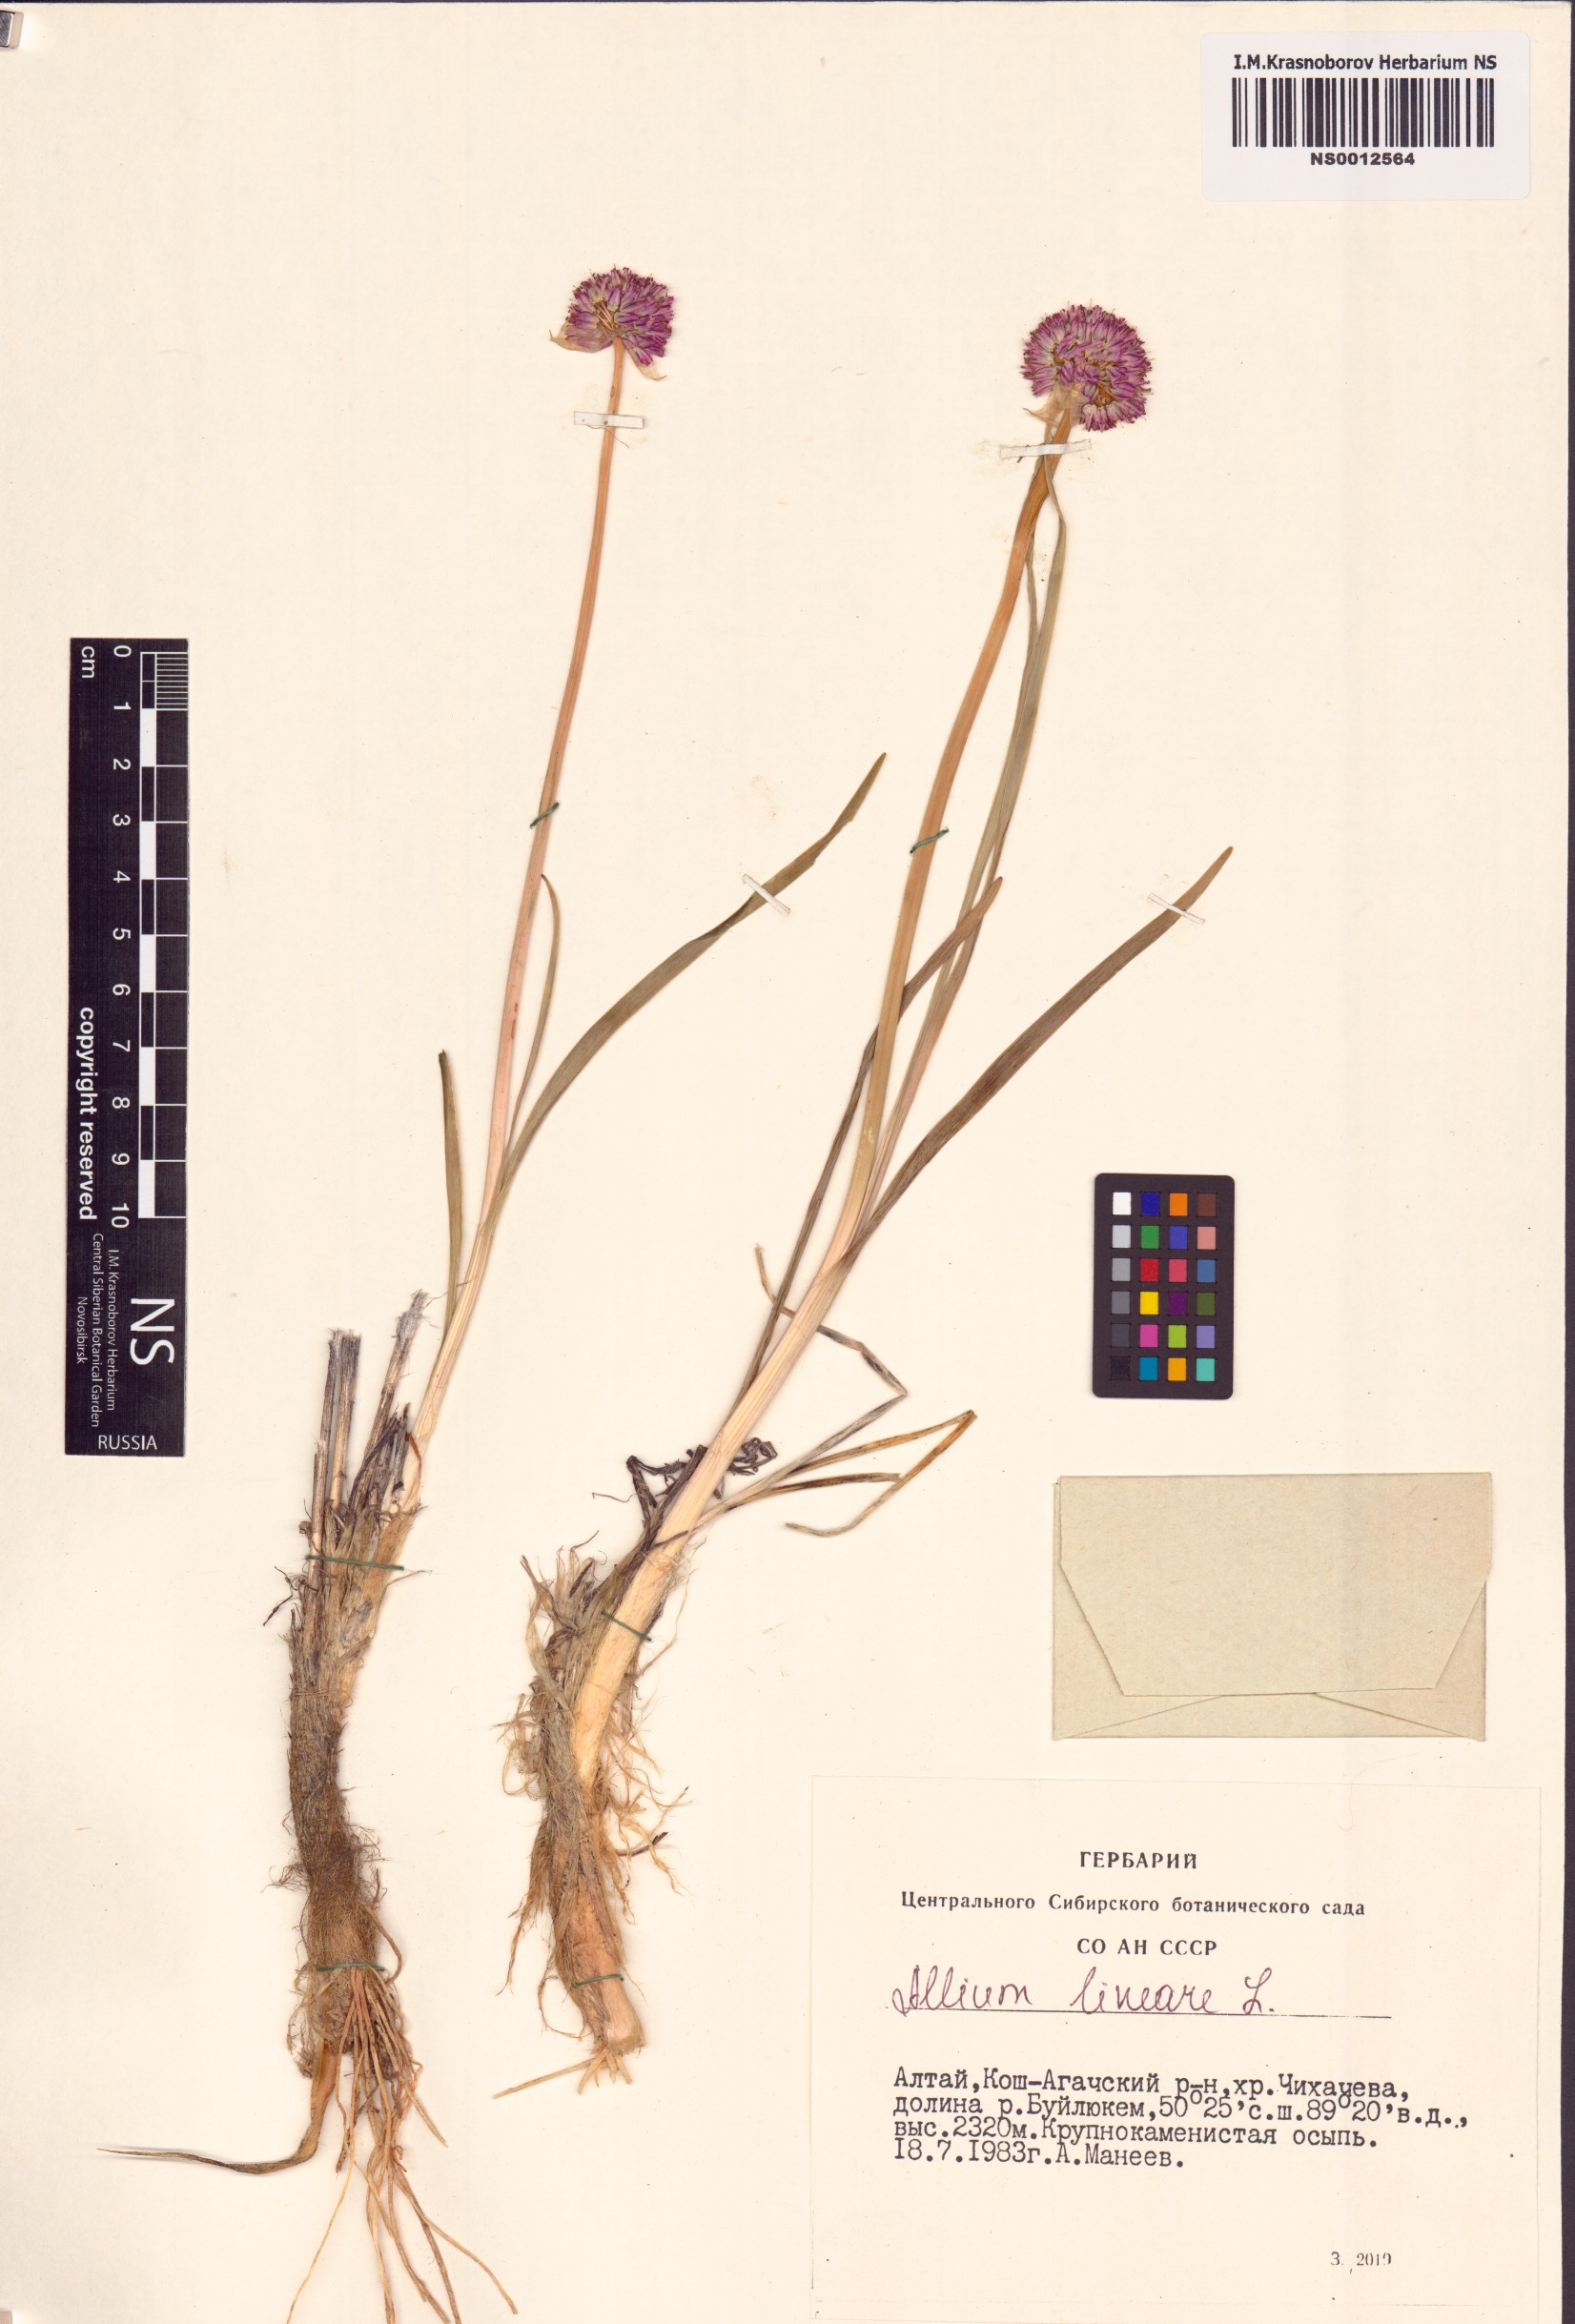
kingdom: Plantae
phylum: Tracheophyta
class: Liliopsida
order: Asparagales
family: Amaryllidaceae
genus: Allium
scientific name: Allium lineare
